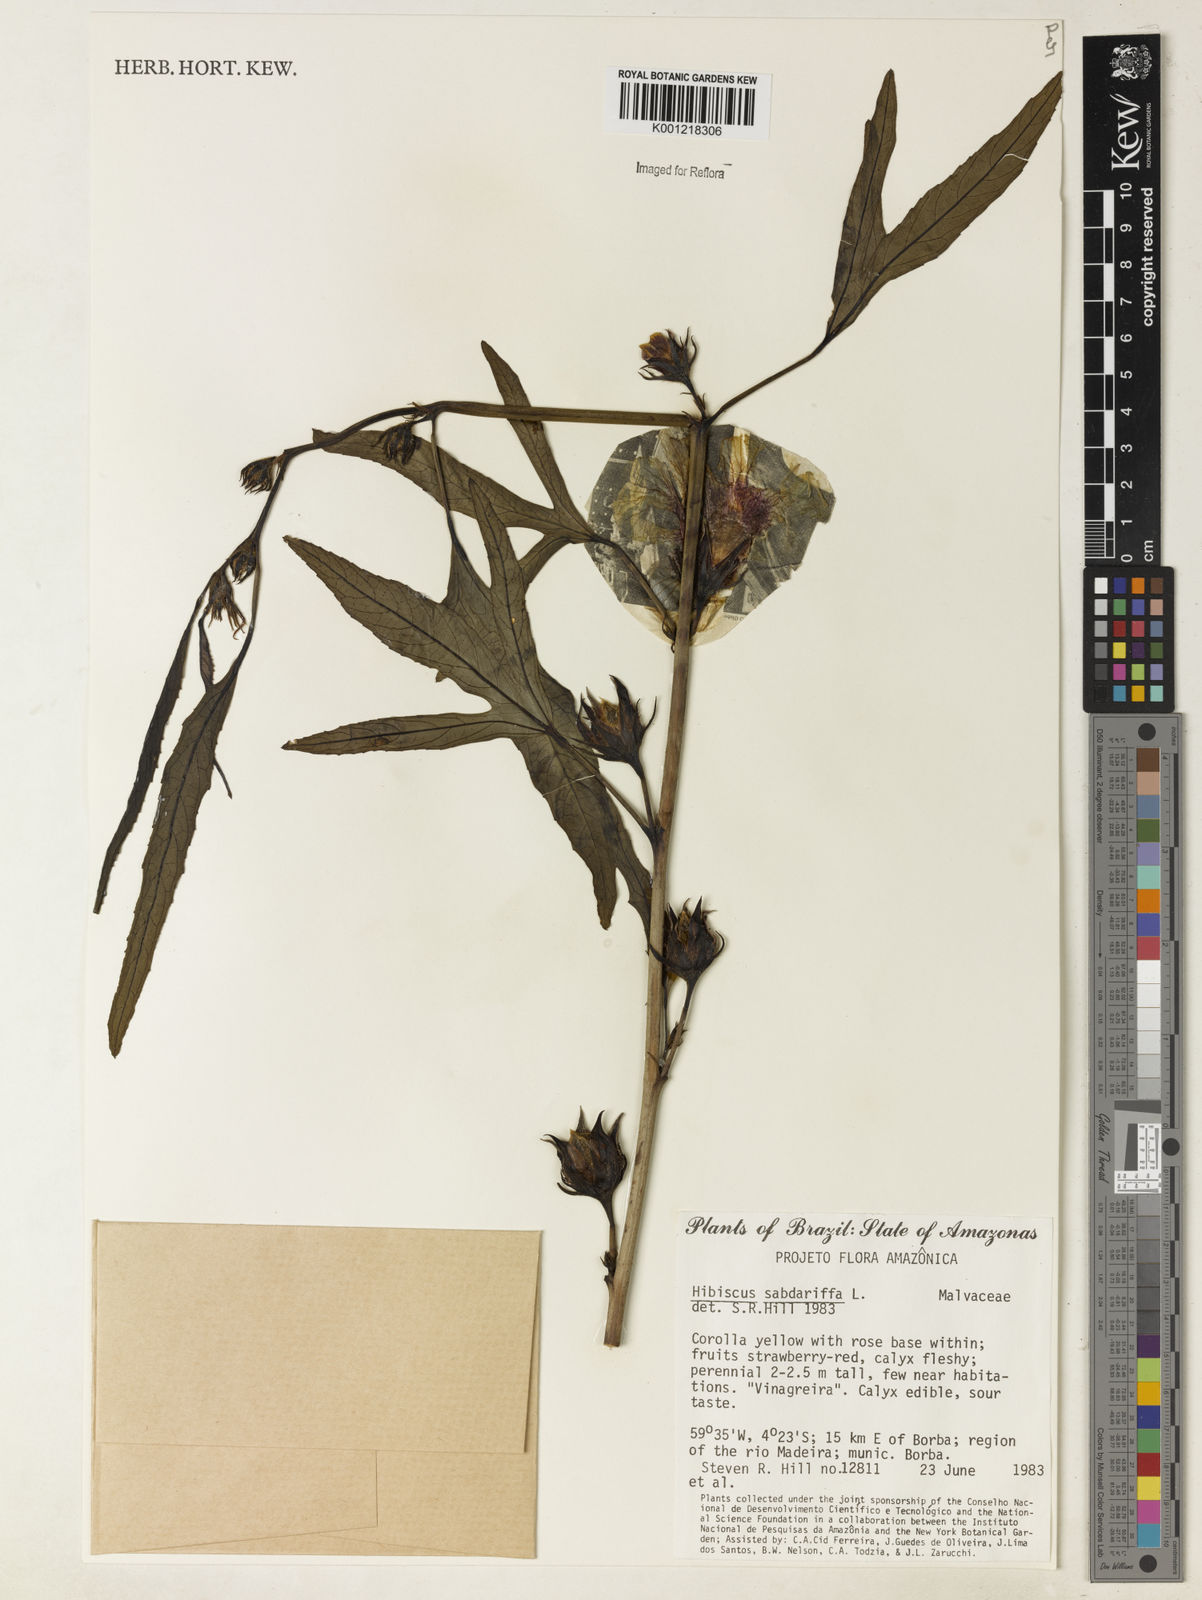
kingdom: Plantae
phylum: Tracheophyta
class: Magnoliopsida
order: Malvales
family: Malvaceae
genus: Hibiscus
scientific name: Hibiscus sabdariffa
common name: Roselle
